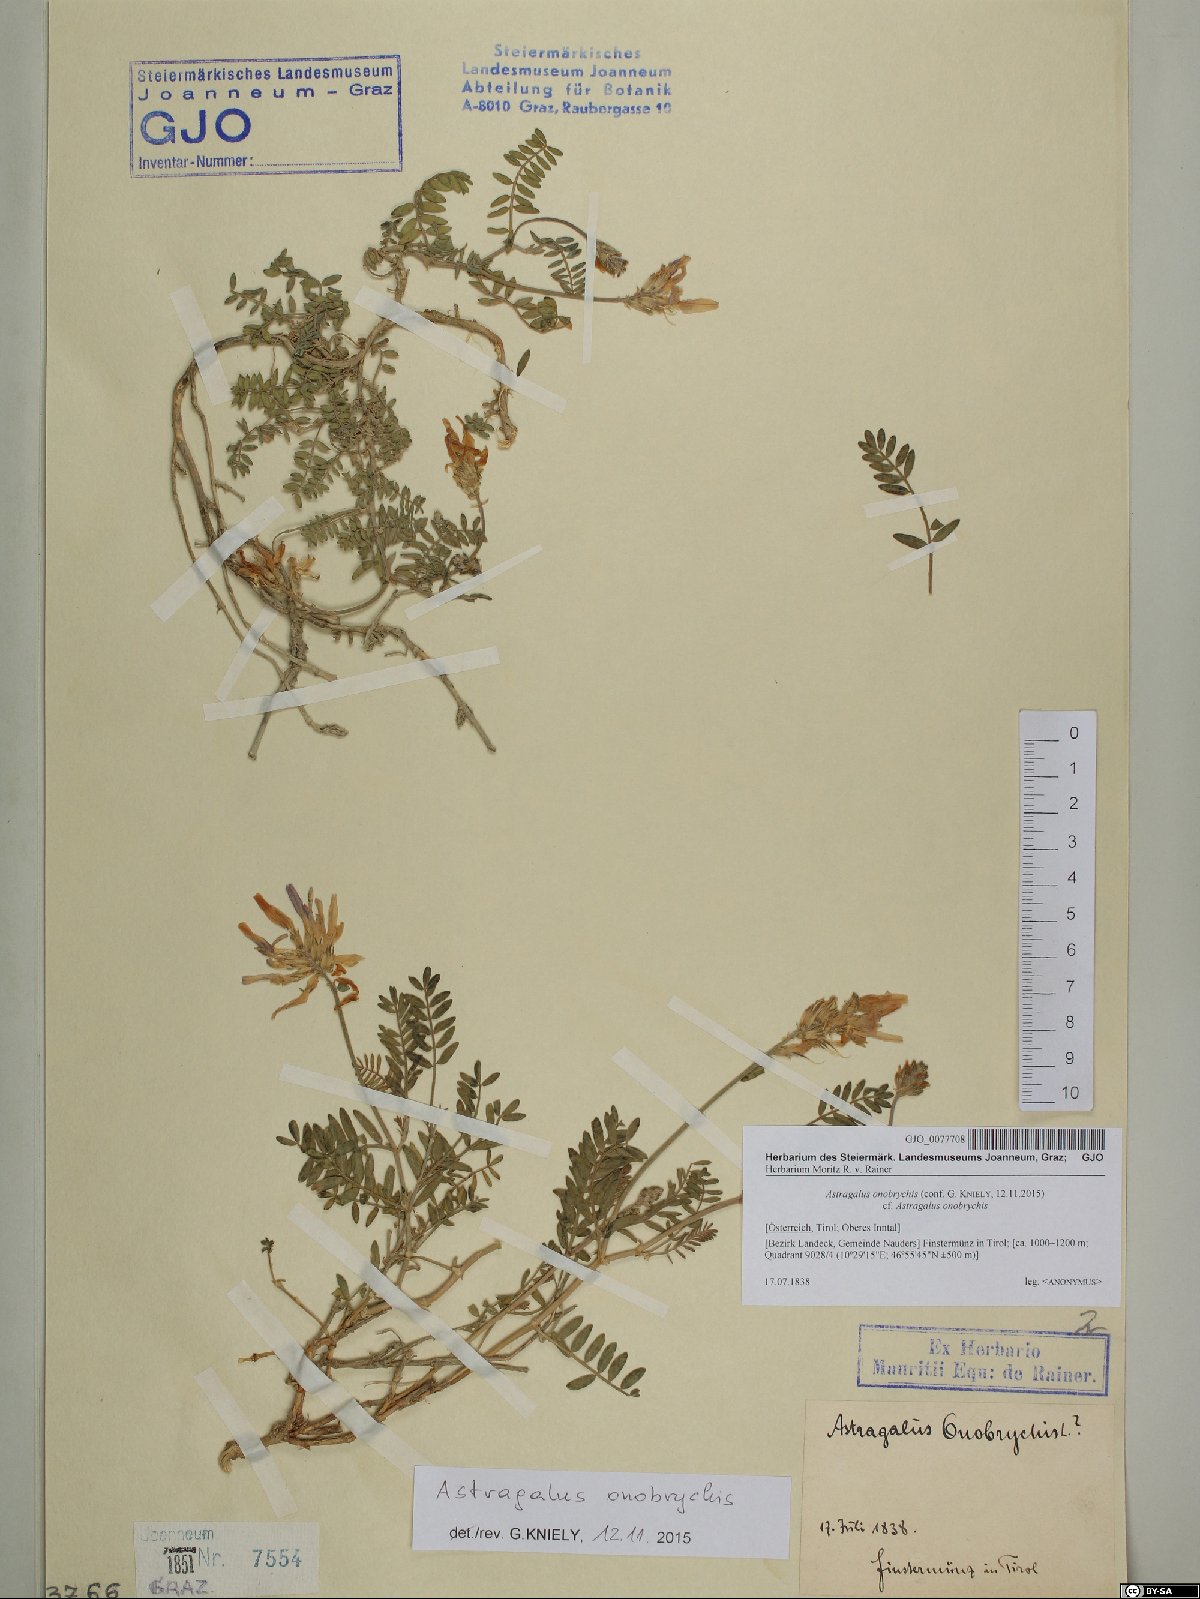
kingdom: Plantae
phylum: Tracheophyta
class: Magnoliopsida
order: Fabales
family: Fabaceae
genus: Astragalus
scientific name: Astragalus onobrychis
